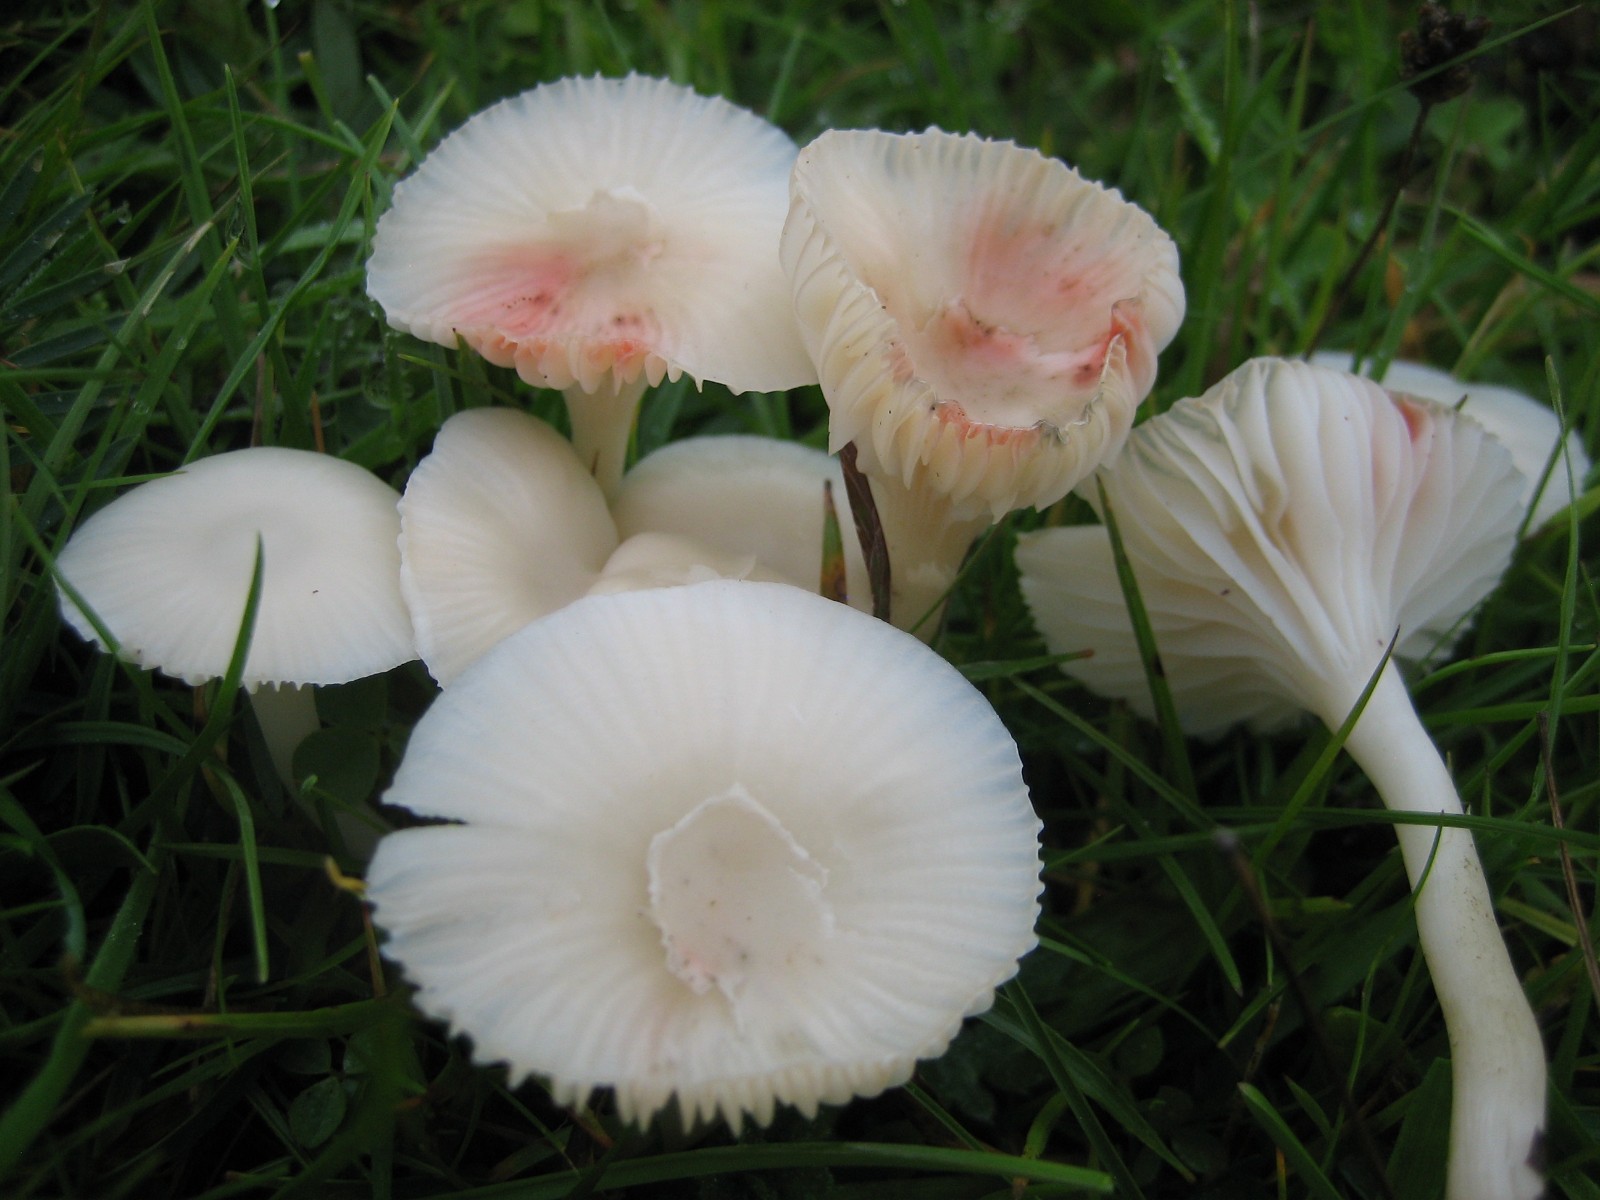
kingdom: Fungi
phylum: Basidiomycota
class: Agaricomycetes
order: Agaricales
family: Hygrophoraceae
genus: Cuphophyllus
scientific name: Cuphophyllus virgineus
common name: snehvid vokshat
